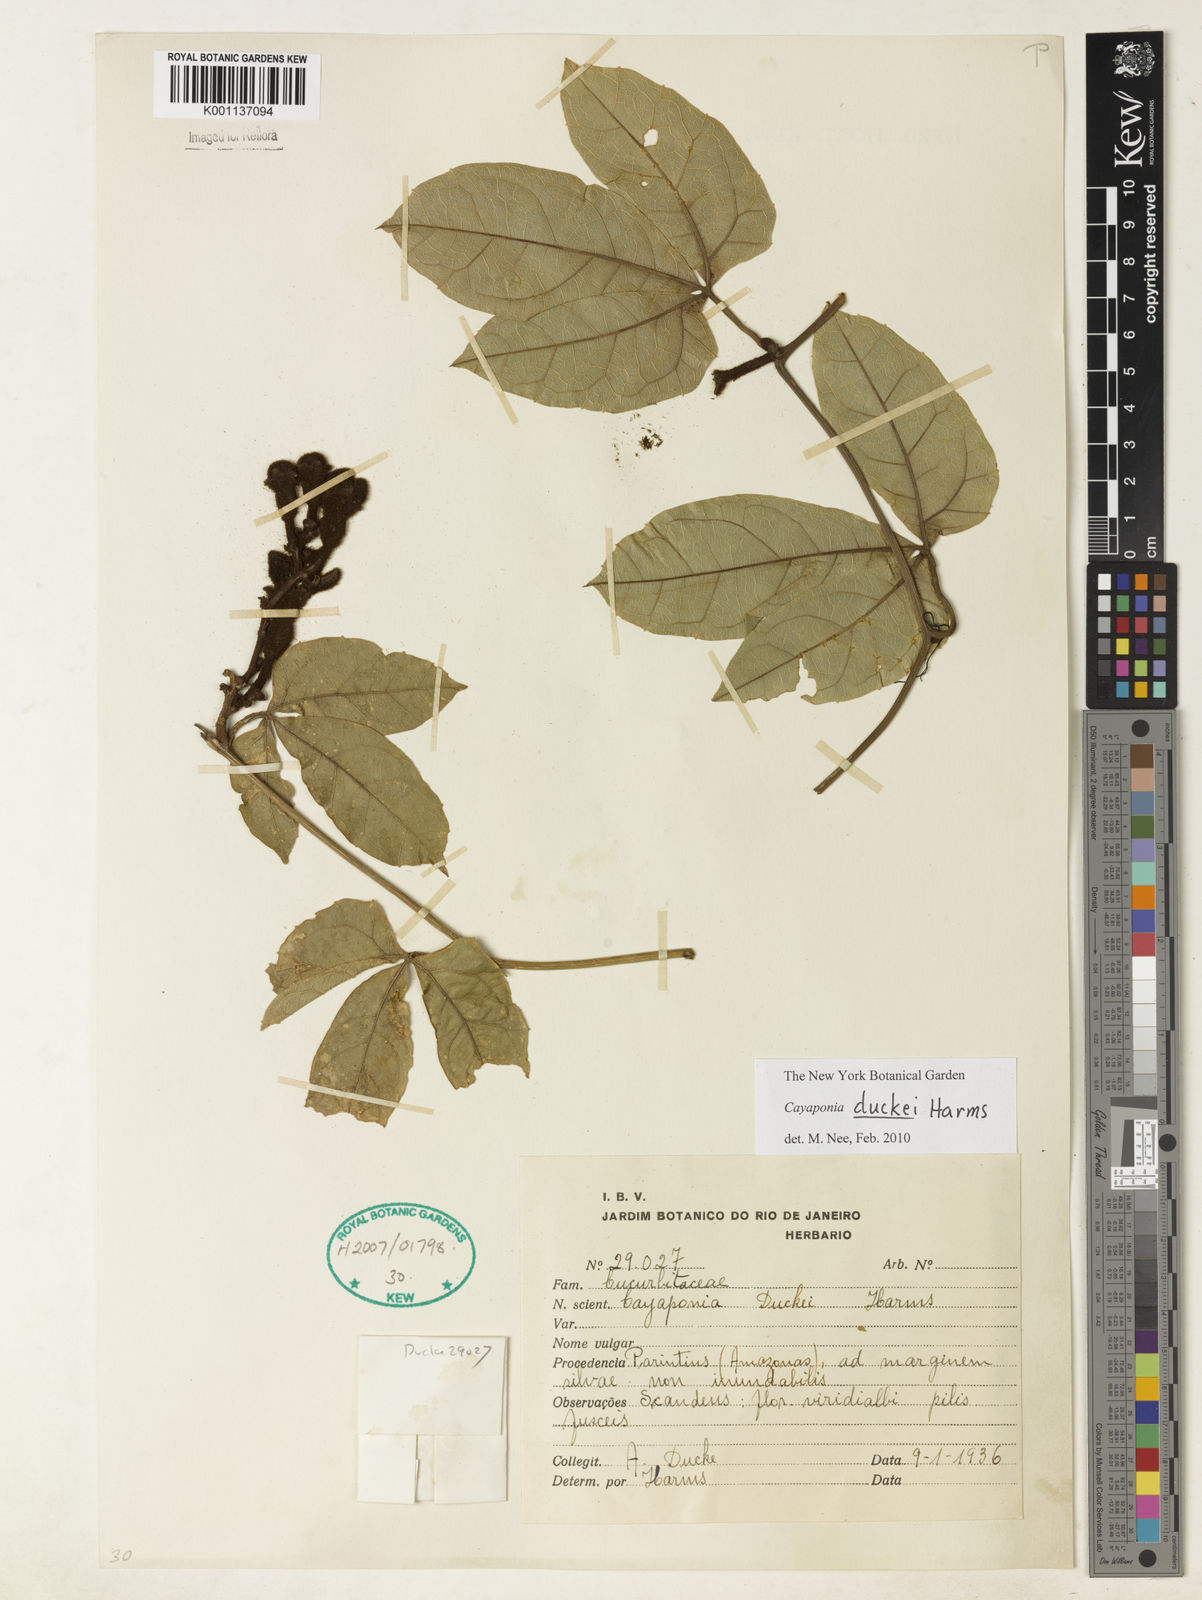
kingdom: Plantae
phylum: Tracheophyta
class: Magnoliopsida
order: Cucurbitales
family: Cucurbitaceae
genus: Cayaponia
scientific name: Cayaponia duckei
